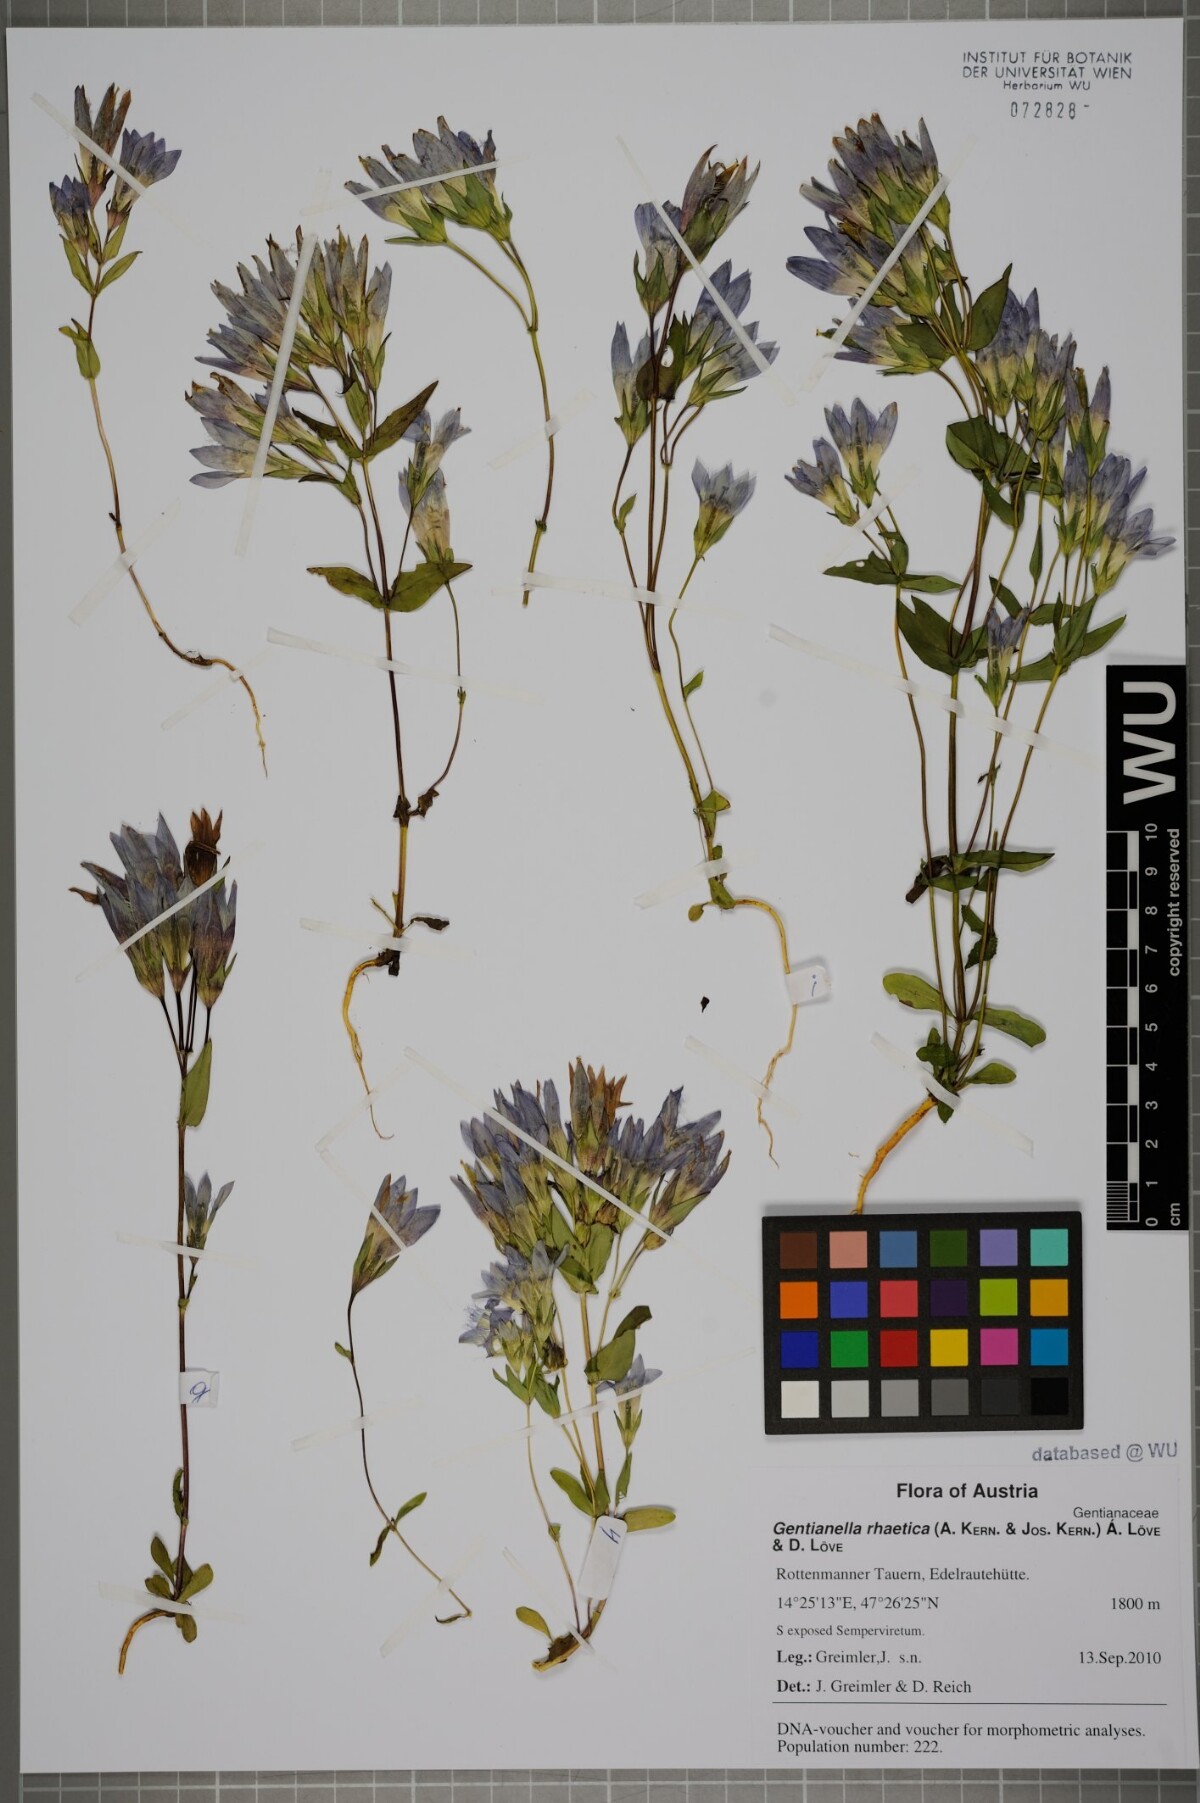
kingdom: Plantae
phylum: Tracheophyta
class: Magnoliopsida
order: Gentianales
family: Gentianaceae
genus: Gentianella
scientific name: Gentianella rhaetica
